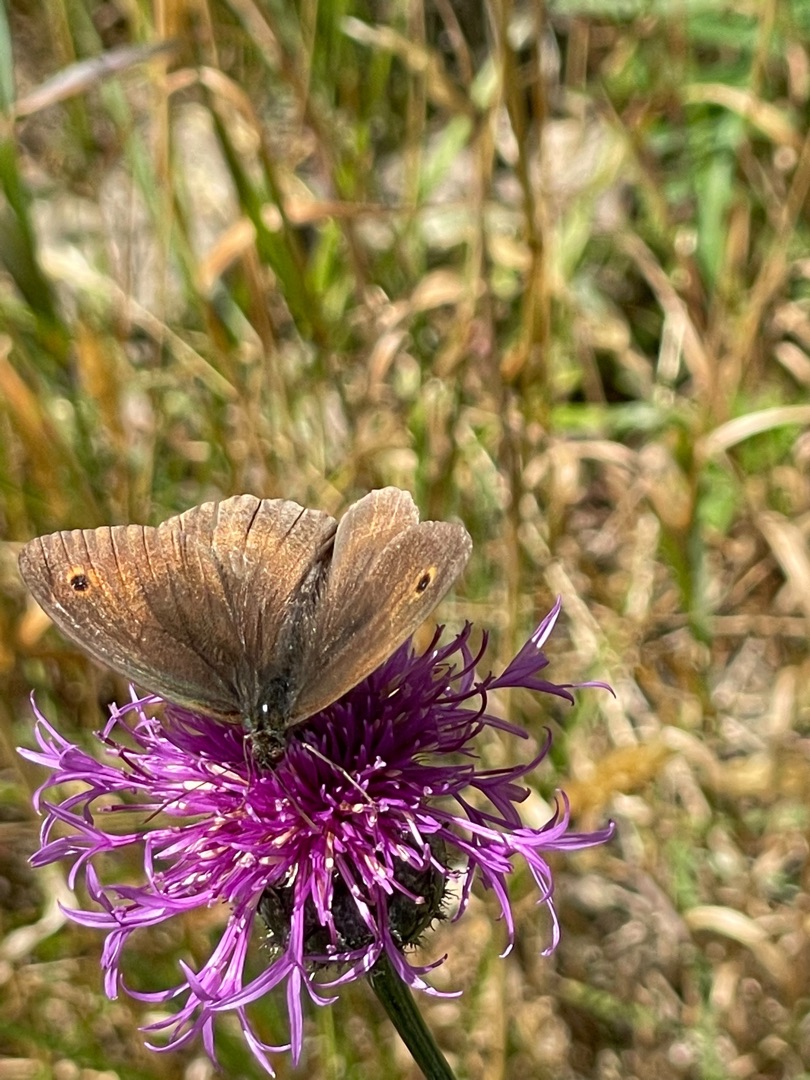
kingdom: Animalia
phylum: Arthropoda
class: Insecta
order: Lepidoptera
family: Nymphalidae
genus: Maniola
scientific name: Maniola jurtina
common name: Græsrandøje
